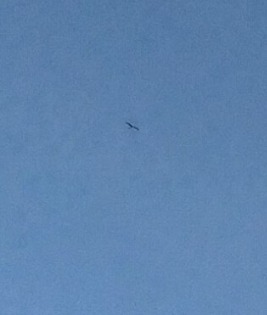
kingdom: Animalia
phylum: Chordata
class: Aves
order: Accipitriformes
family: Accipitridae
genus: Buteo
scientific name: Buteo buteo
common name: Musvåge
